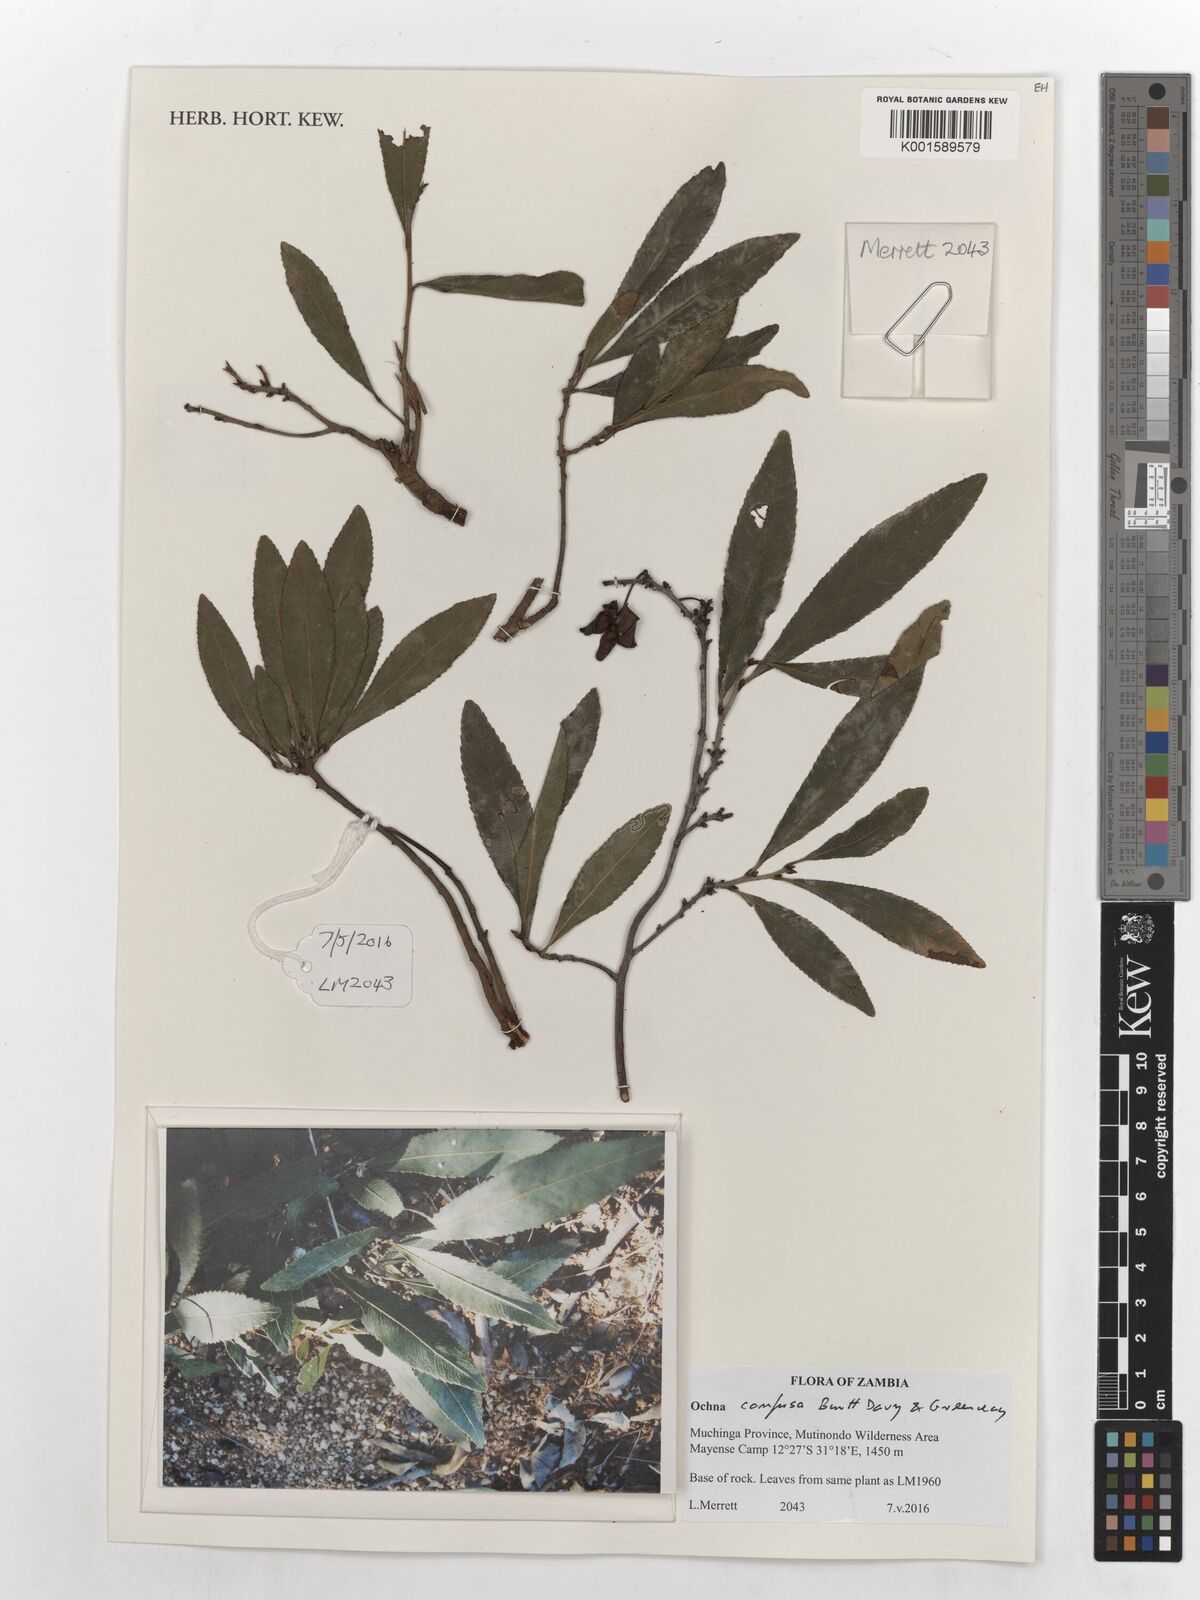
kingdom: Plantae
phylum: Tracheophyta
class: Magnoliopsida
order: Malpighiales
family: Ochnaceae
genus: Ochna
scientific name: Ochna confusa
